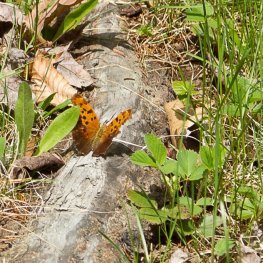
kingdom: Animalia
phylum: Arthropoda
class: Insecta
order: Lepidoptera
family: Nymphalidae
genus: Polygonia
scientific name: Polygonia interrogationis
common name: Question Mark
